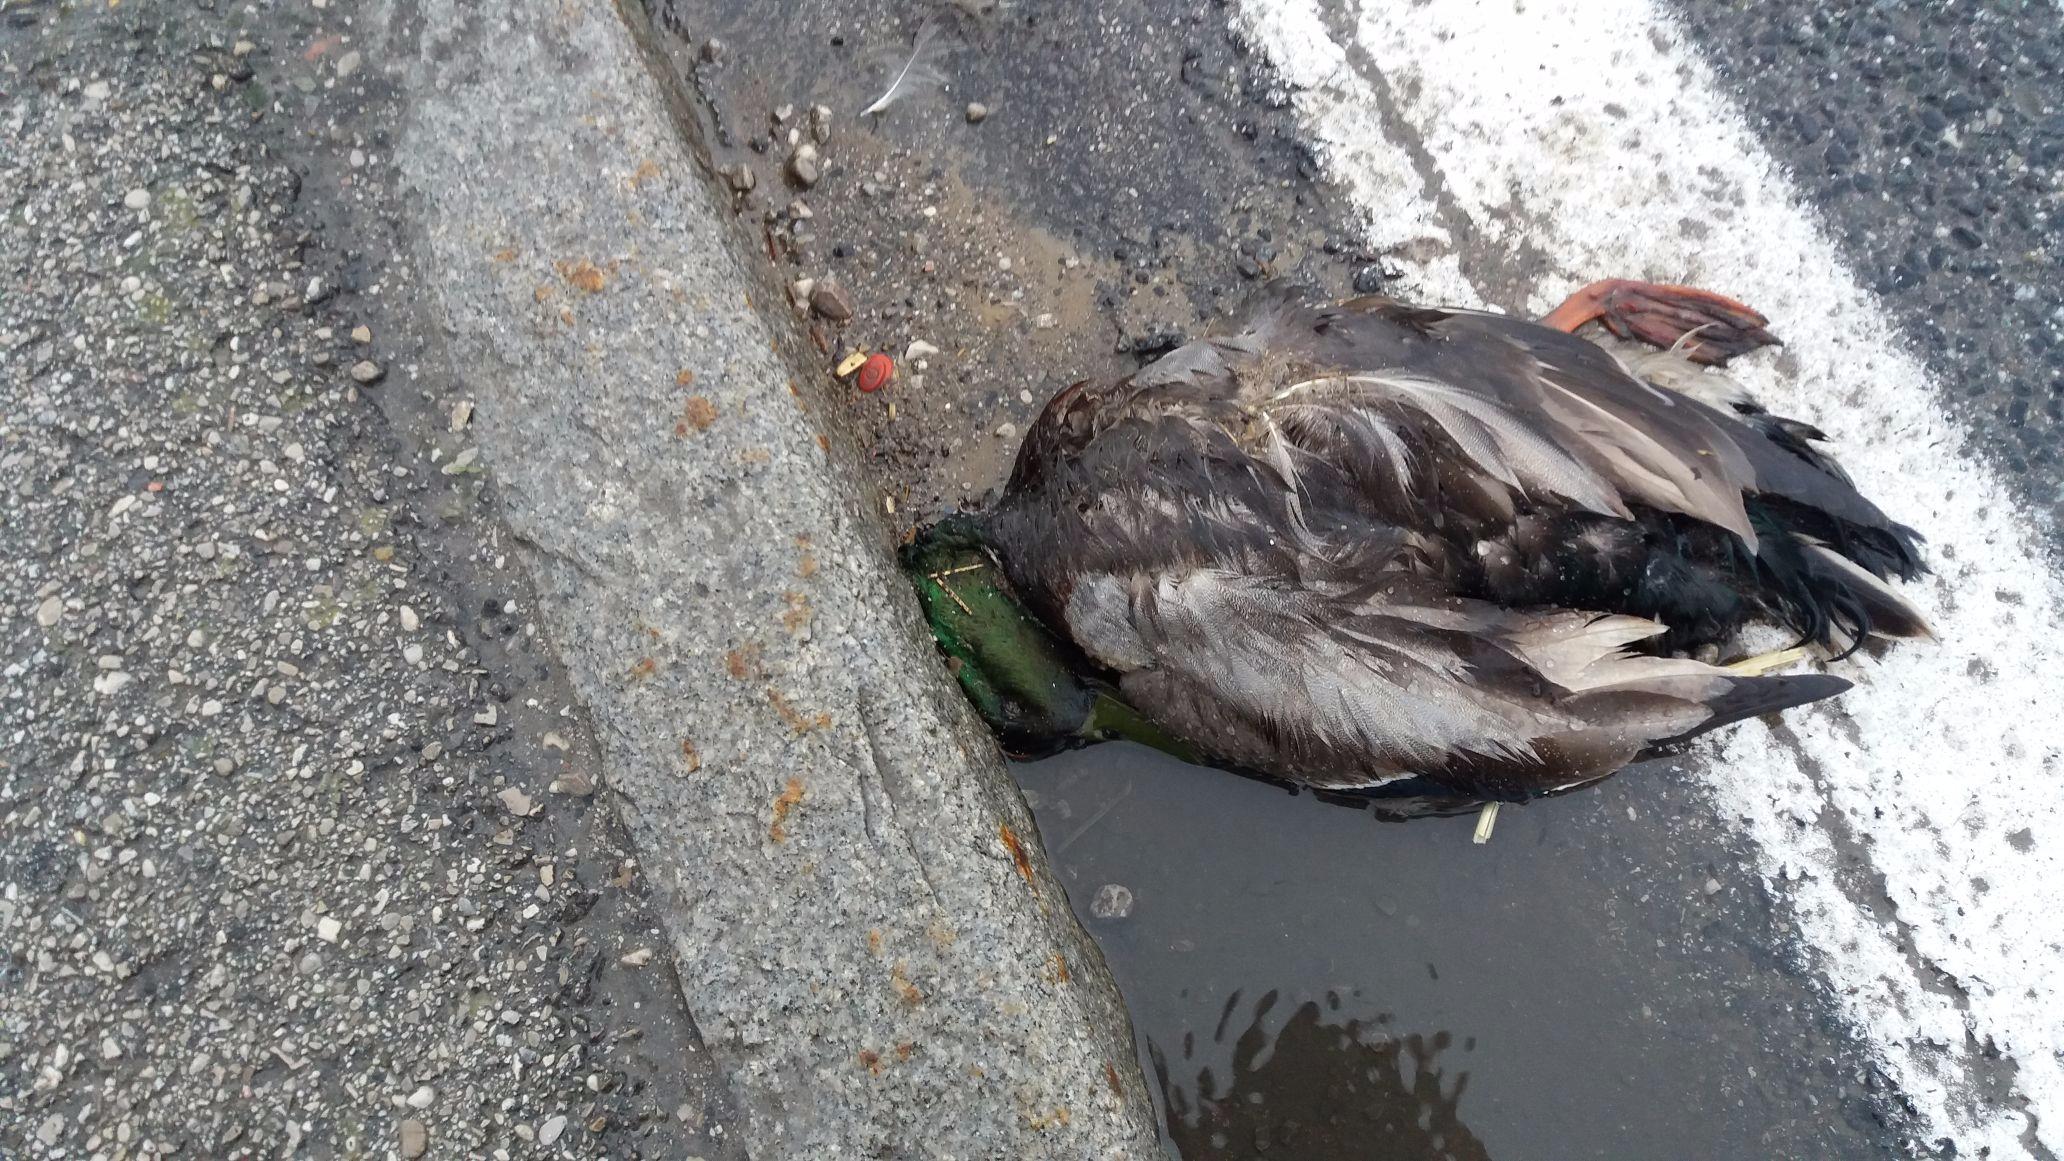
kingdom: Animalia
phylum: Chordata
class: Aves
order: Anseriformes
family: Anatidae
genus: Anas
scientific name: Anas platyrhynchos
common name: Mallard
